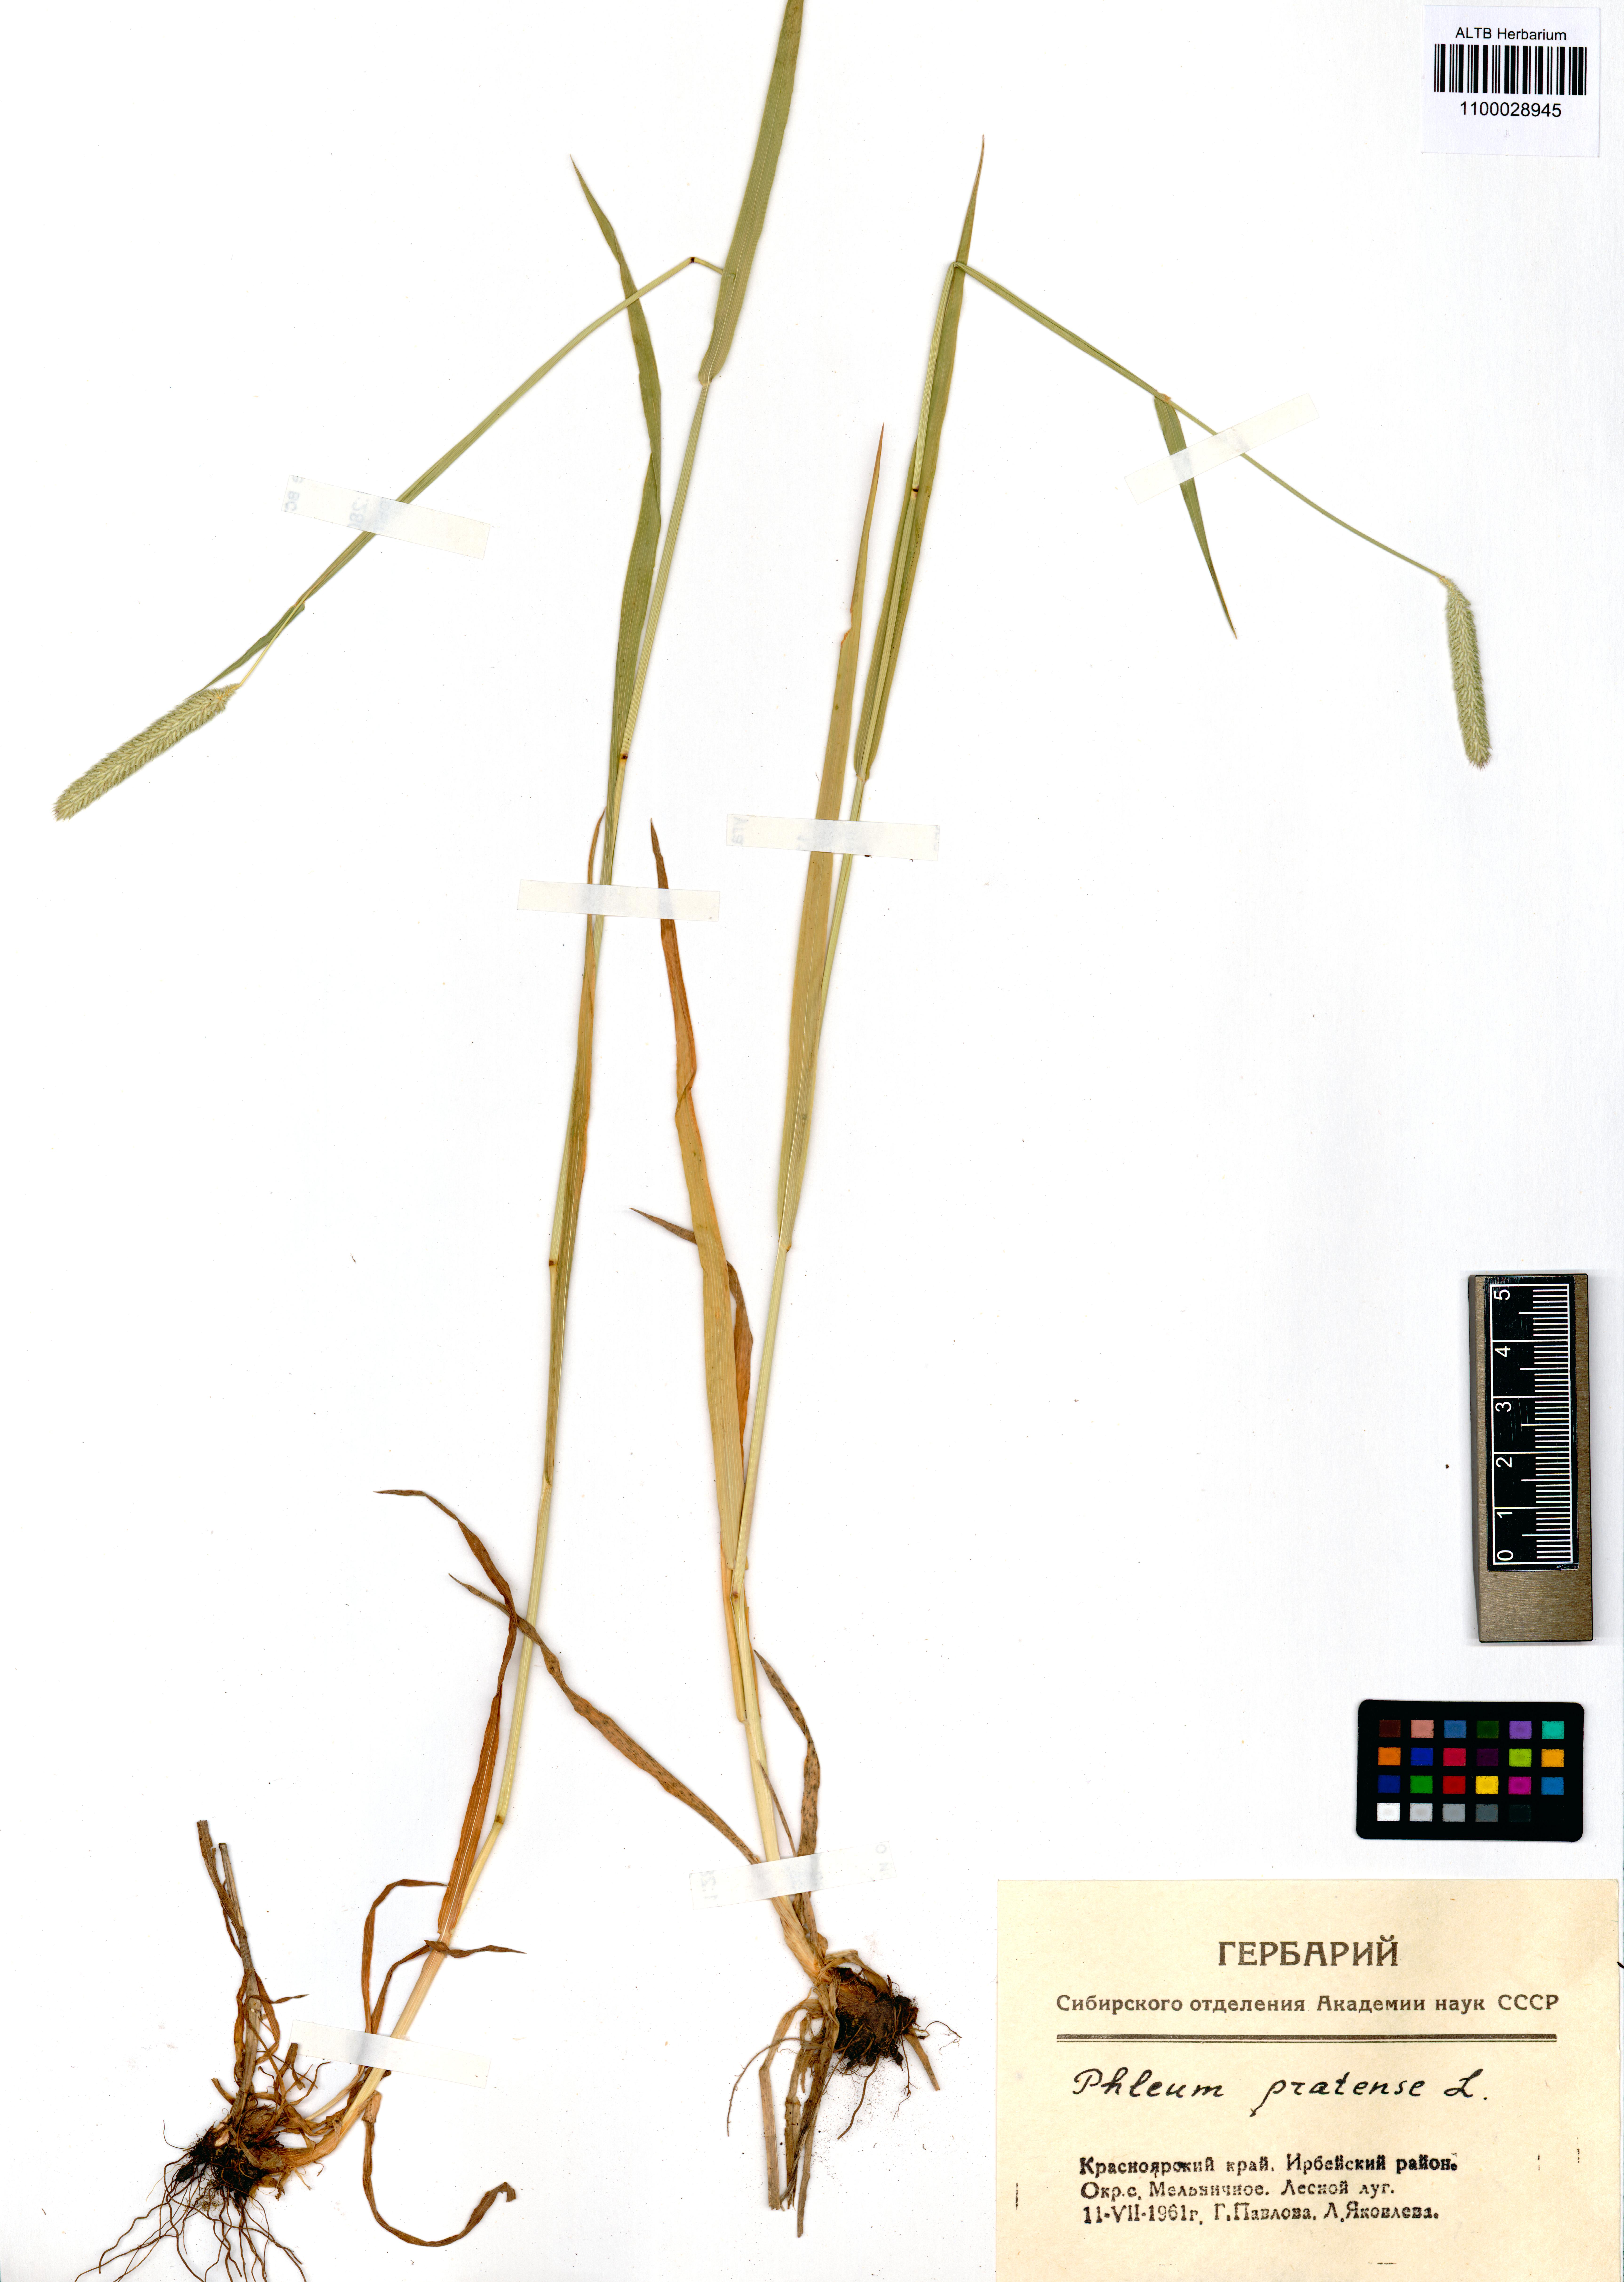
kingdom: Plantae
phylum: Tracheophyta
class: Liliopsida
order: Poales
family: Poaceae
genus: Phleum
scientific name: Phleum pratense
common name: Timothy grass
